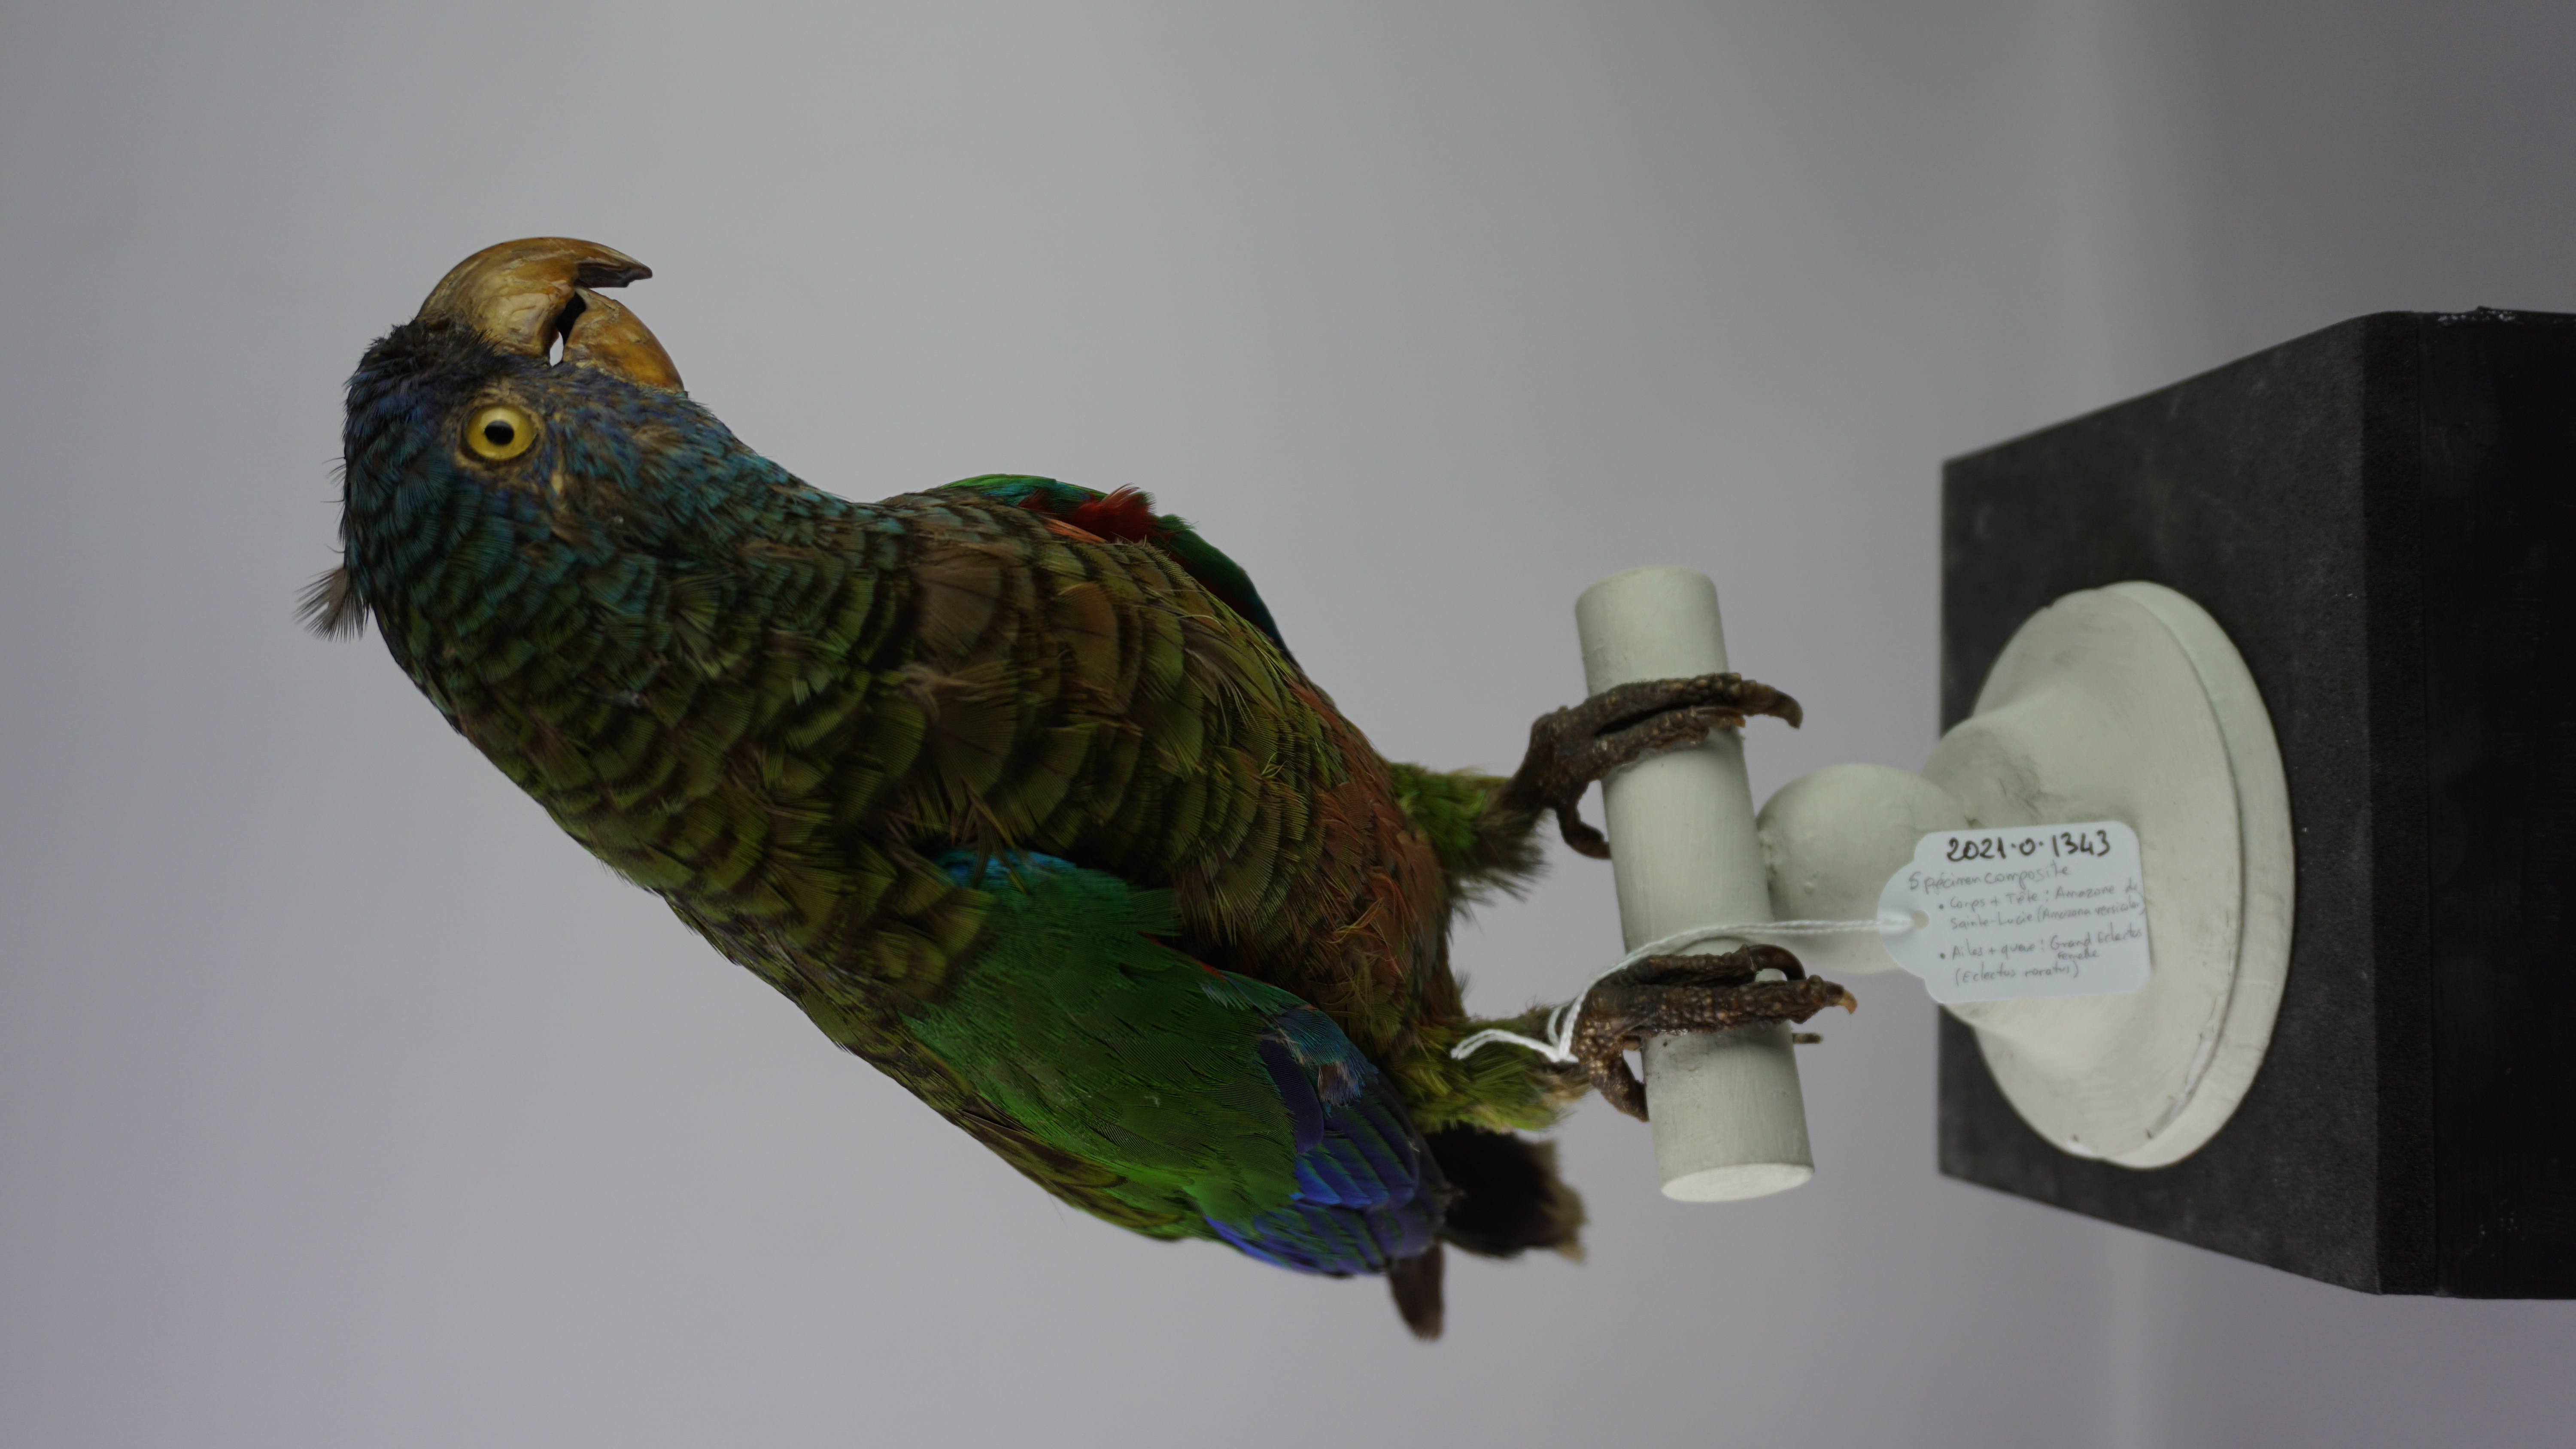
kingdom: Animalia
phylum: Chordata
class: Aves
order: Psittaciformes
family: Psittacidae
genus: Amazona
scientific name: Amazona versicolor
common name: St. lucia amazon
